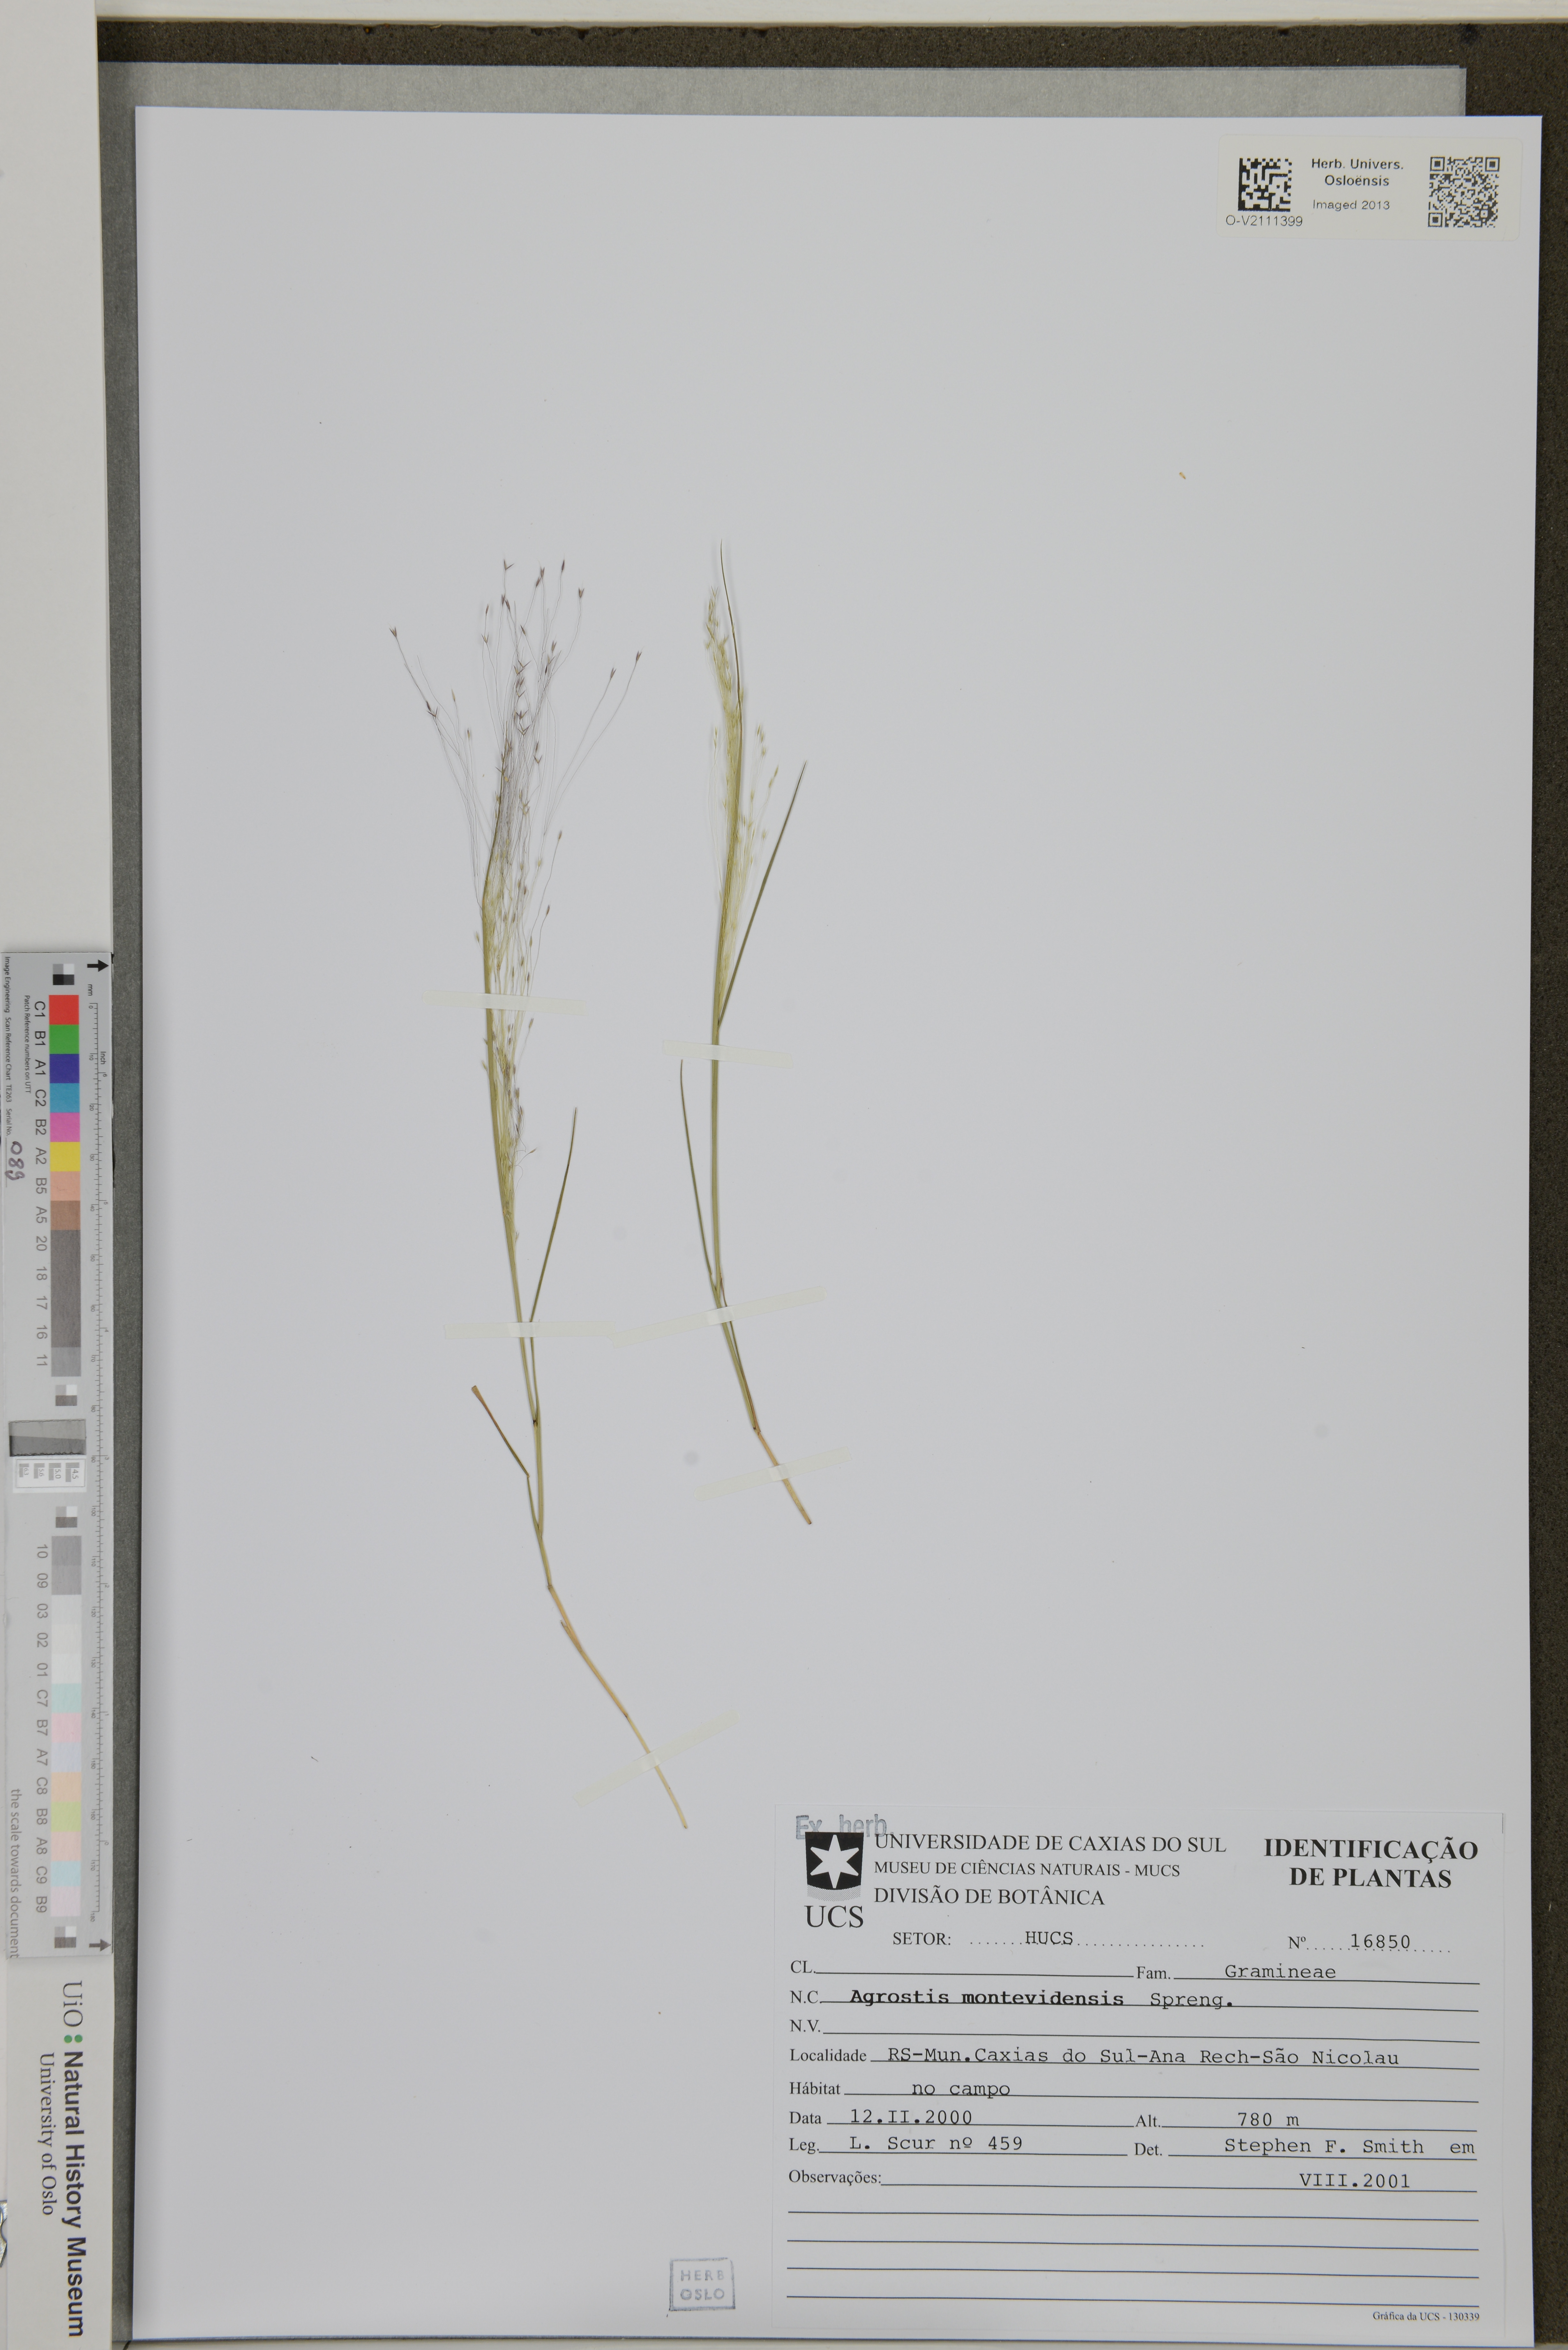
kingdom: Plantae
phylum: Tracheophyta
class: Liliopsida
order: Poales
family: Poaceae
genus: Agrostis
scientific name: Agrostis montevidensis
